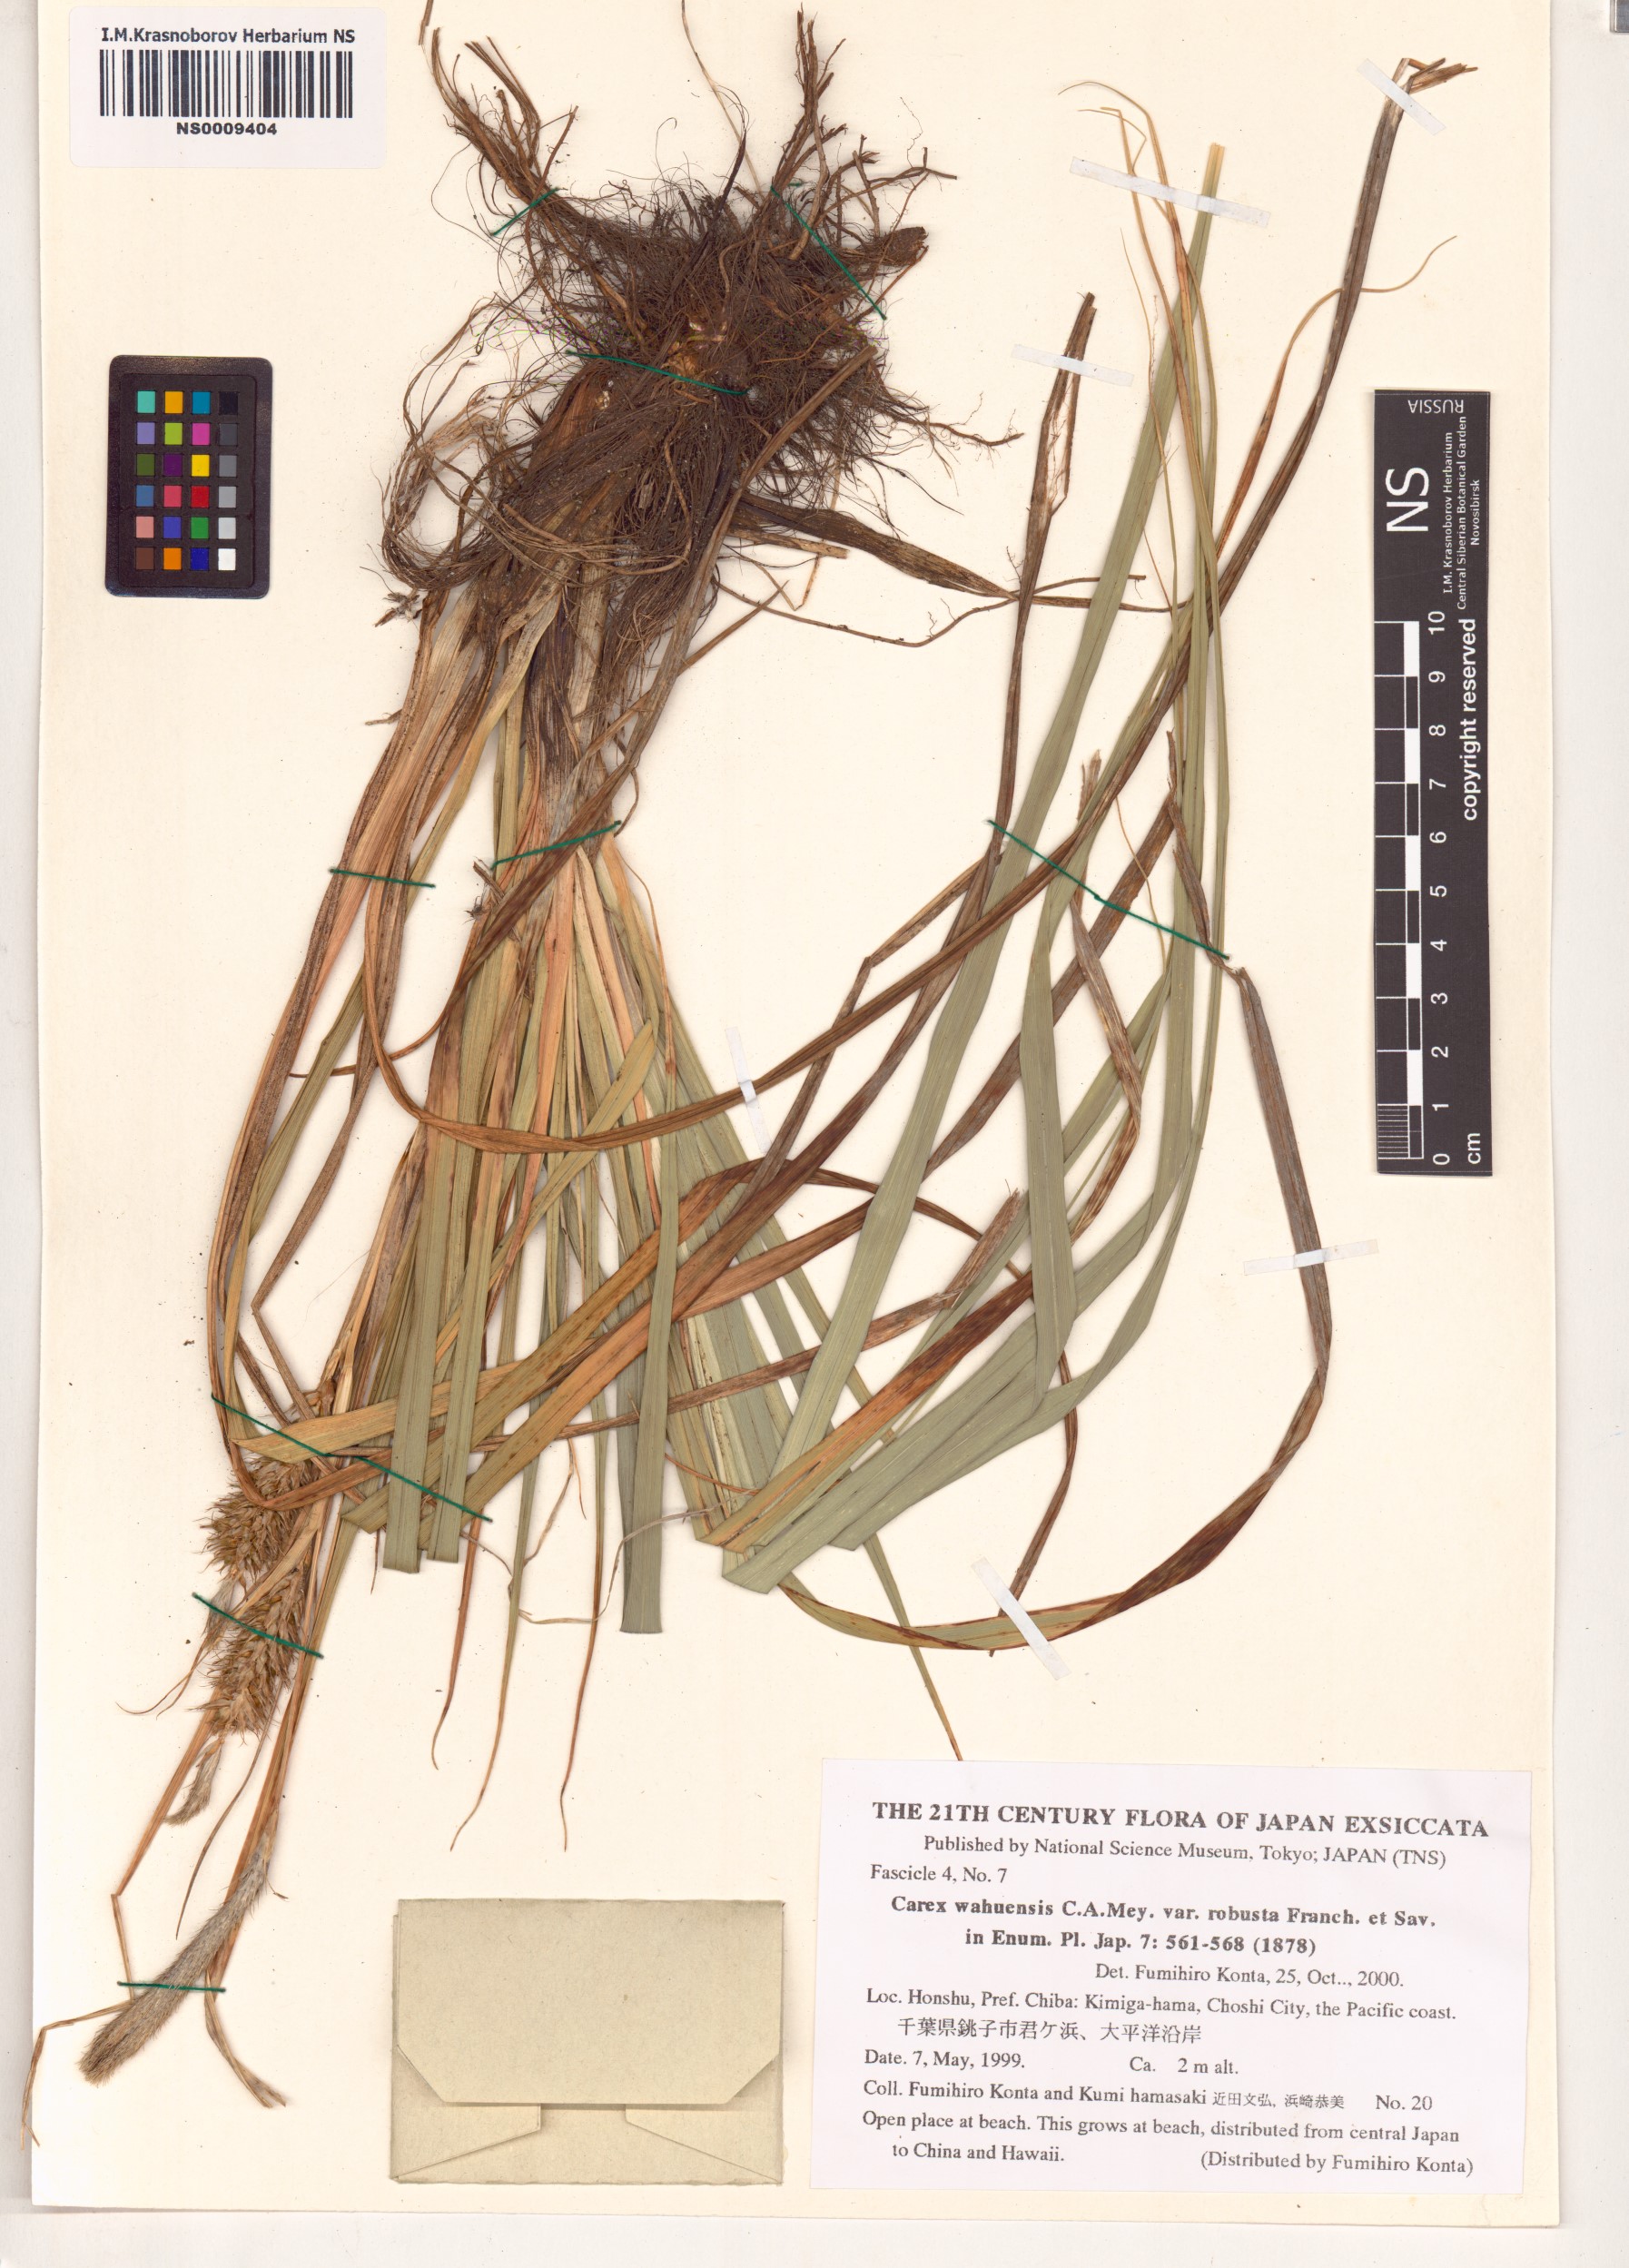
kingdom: Plantae
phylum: Tracheophyta
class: Liliopsida
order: Poales
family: Cyperaceae
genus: Carex
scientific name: Carex wahuensis
